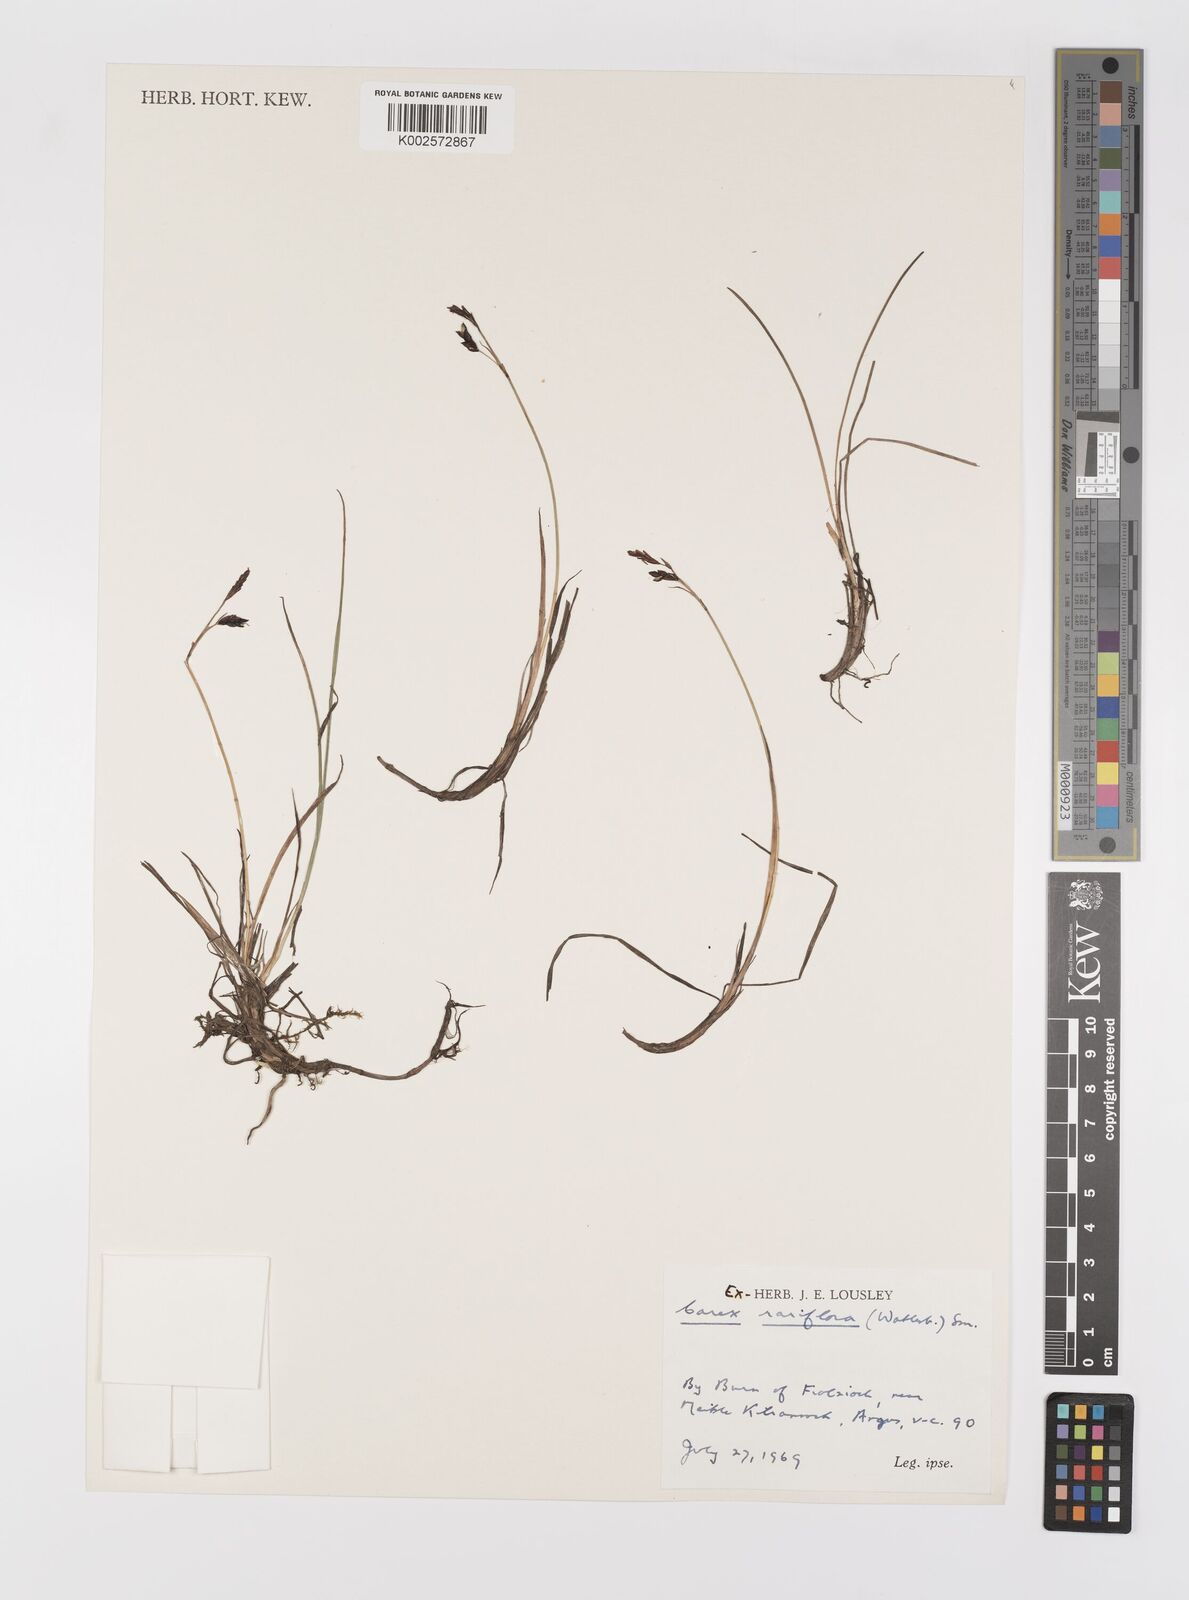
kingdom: Plantae
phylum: Tracheophyta
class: Liliopsida
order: Poales
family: Cyperaceae
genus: Carex
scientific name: Carex rariflora
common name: Loose-flowered alpine sedge
